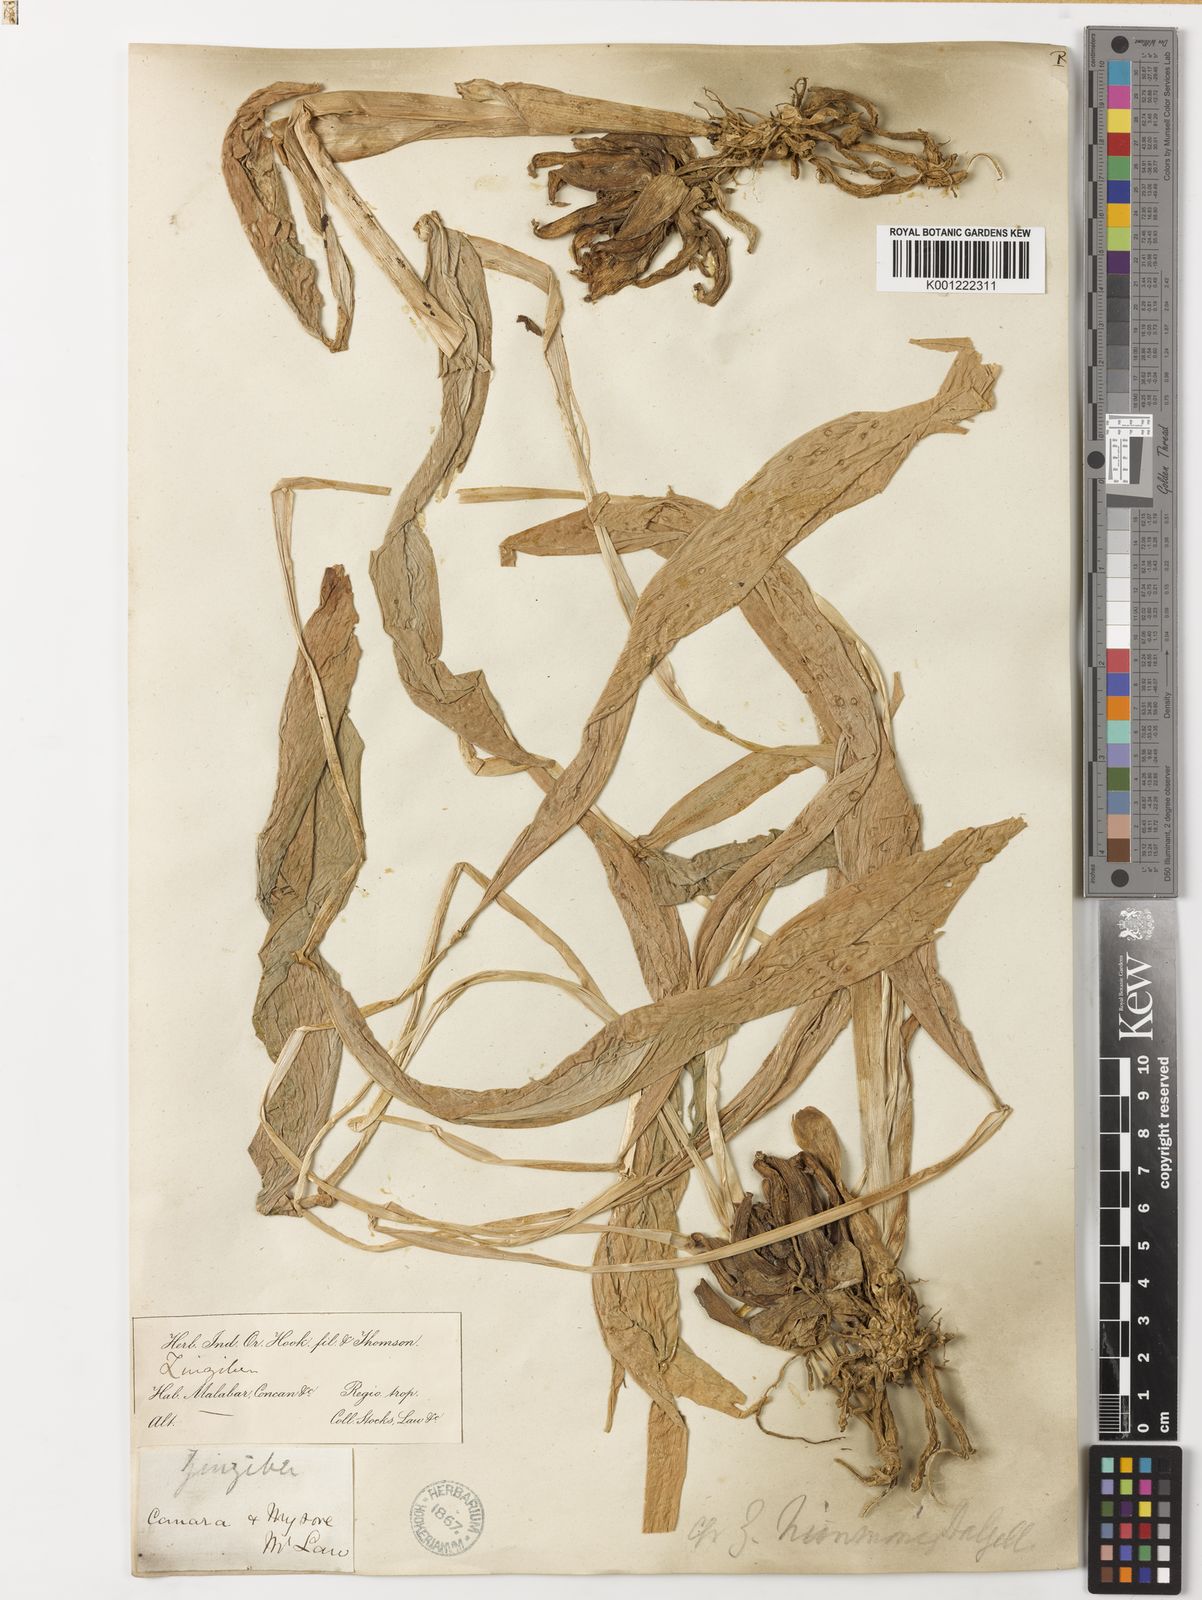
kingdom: Plantae
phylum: Tracheophyta
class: Liliopsida
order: Zingiberales
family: Zingiberaceae
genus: Zingiber
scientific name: Zingiber
